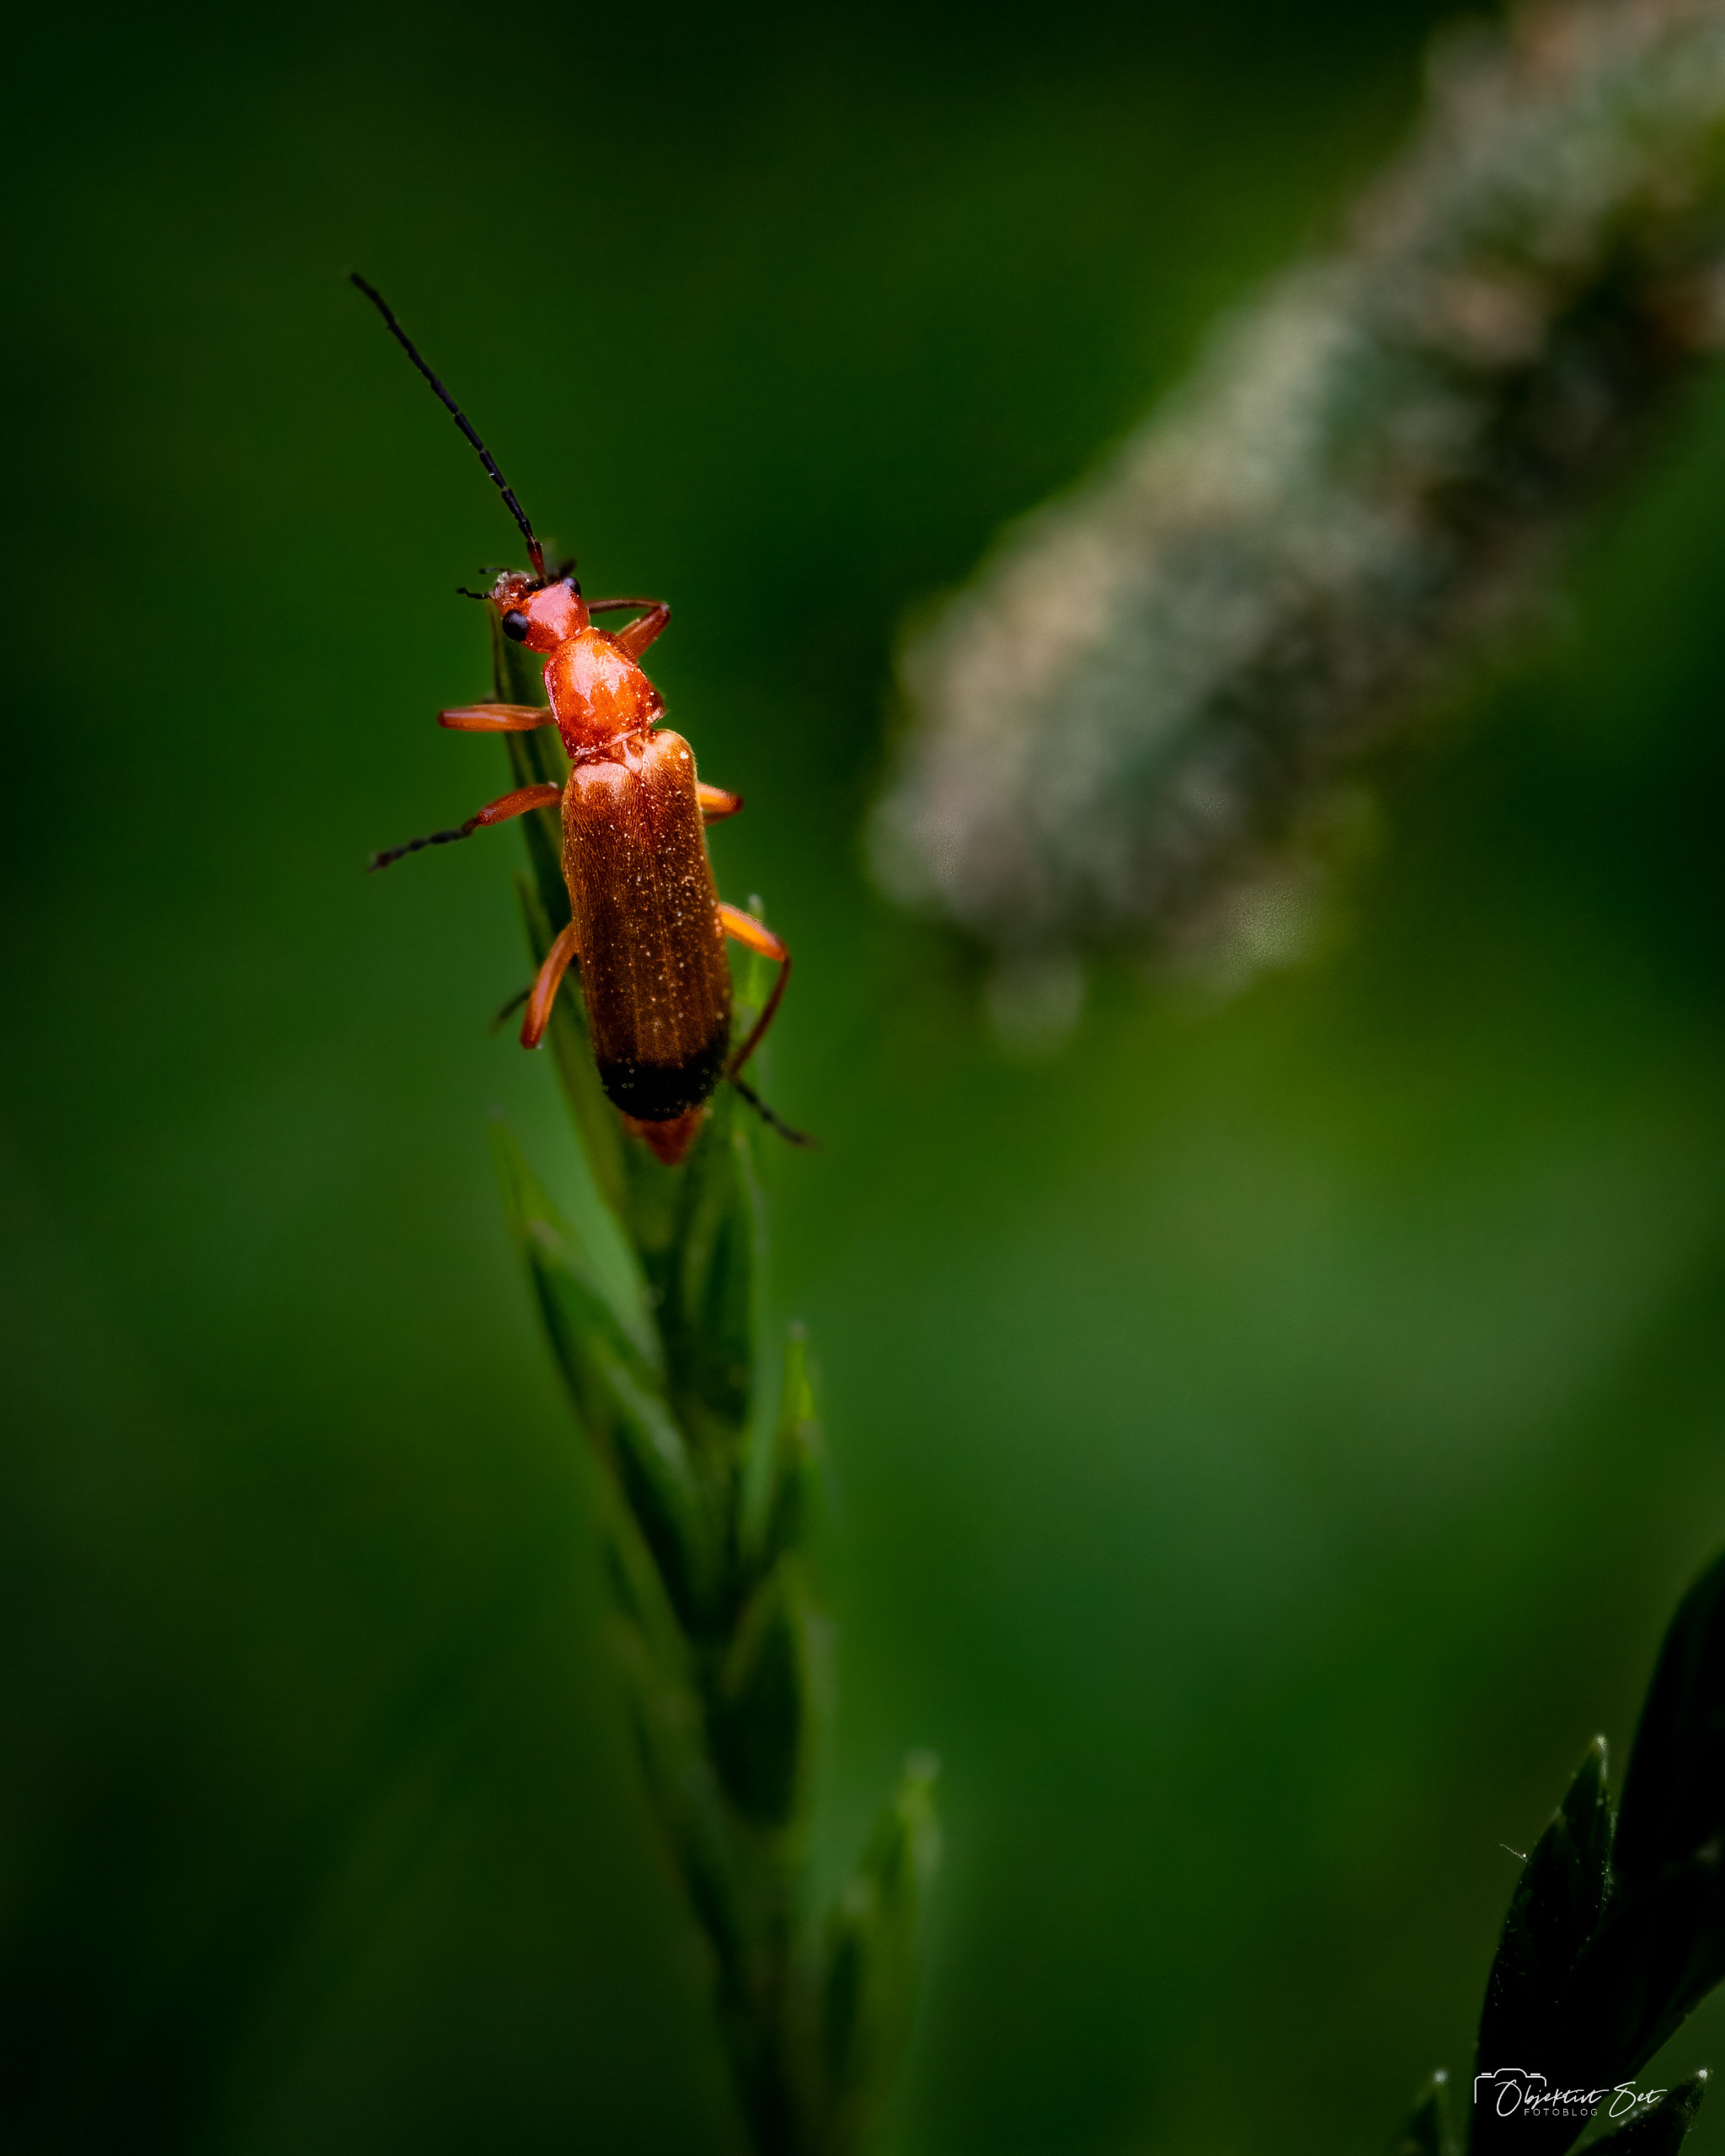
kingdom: Animalia
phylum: Arthropoda
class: Insecta
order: Coleoptera
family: Cantharidae
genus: Rhagonycha
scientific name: Rhagonycha fulva
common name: Præstebille
